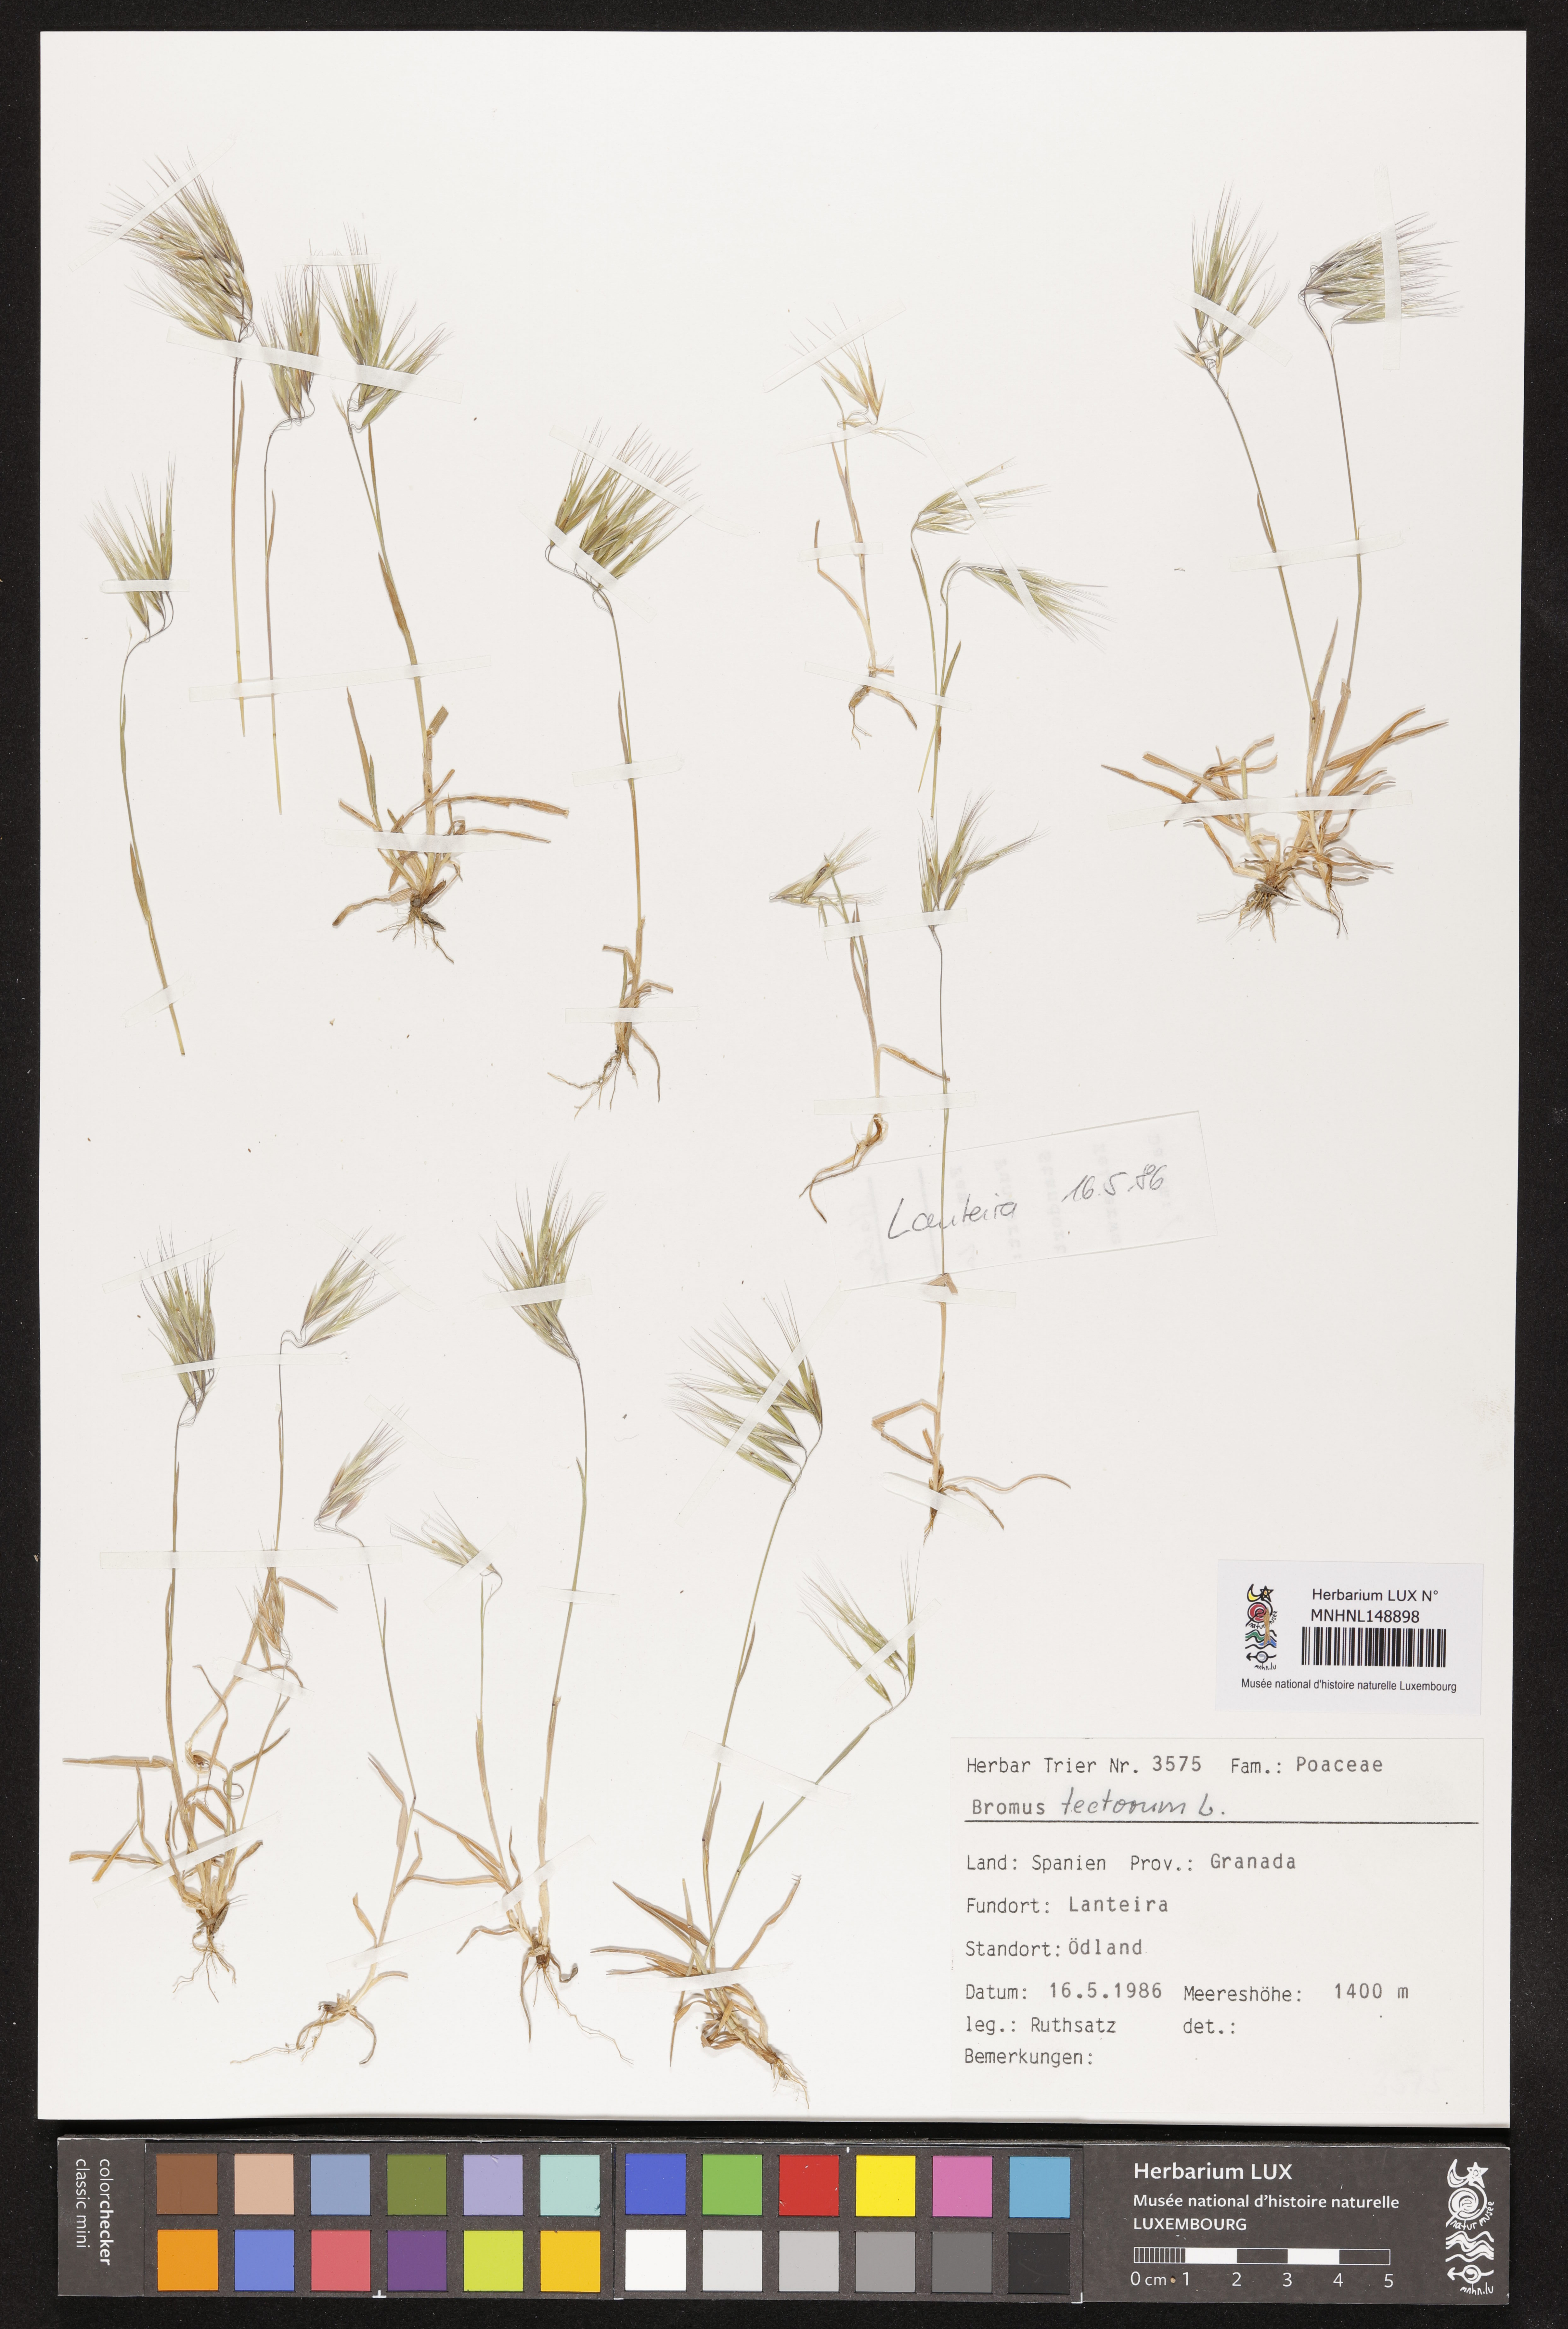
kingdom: Plantae
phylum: Tracheophyta
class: Liliopsida
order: Poales
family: Poaceae
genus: Bromus
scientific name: Bromus tectorum
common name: Cheatgrass
